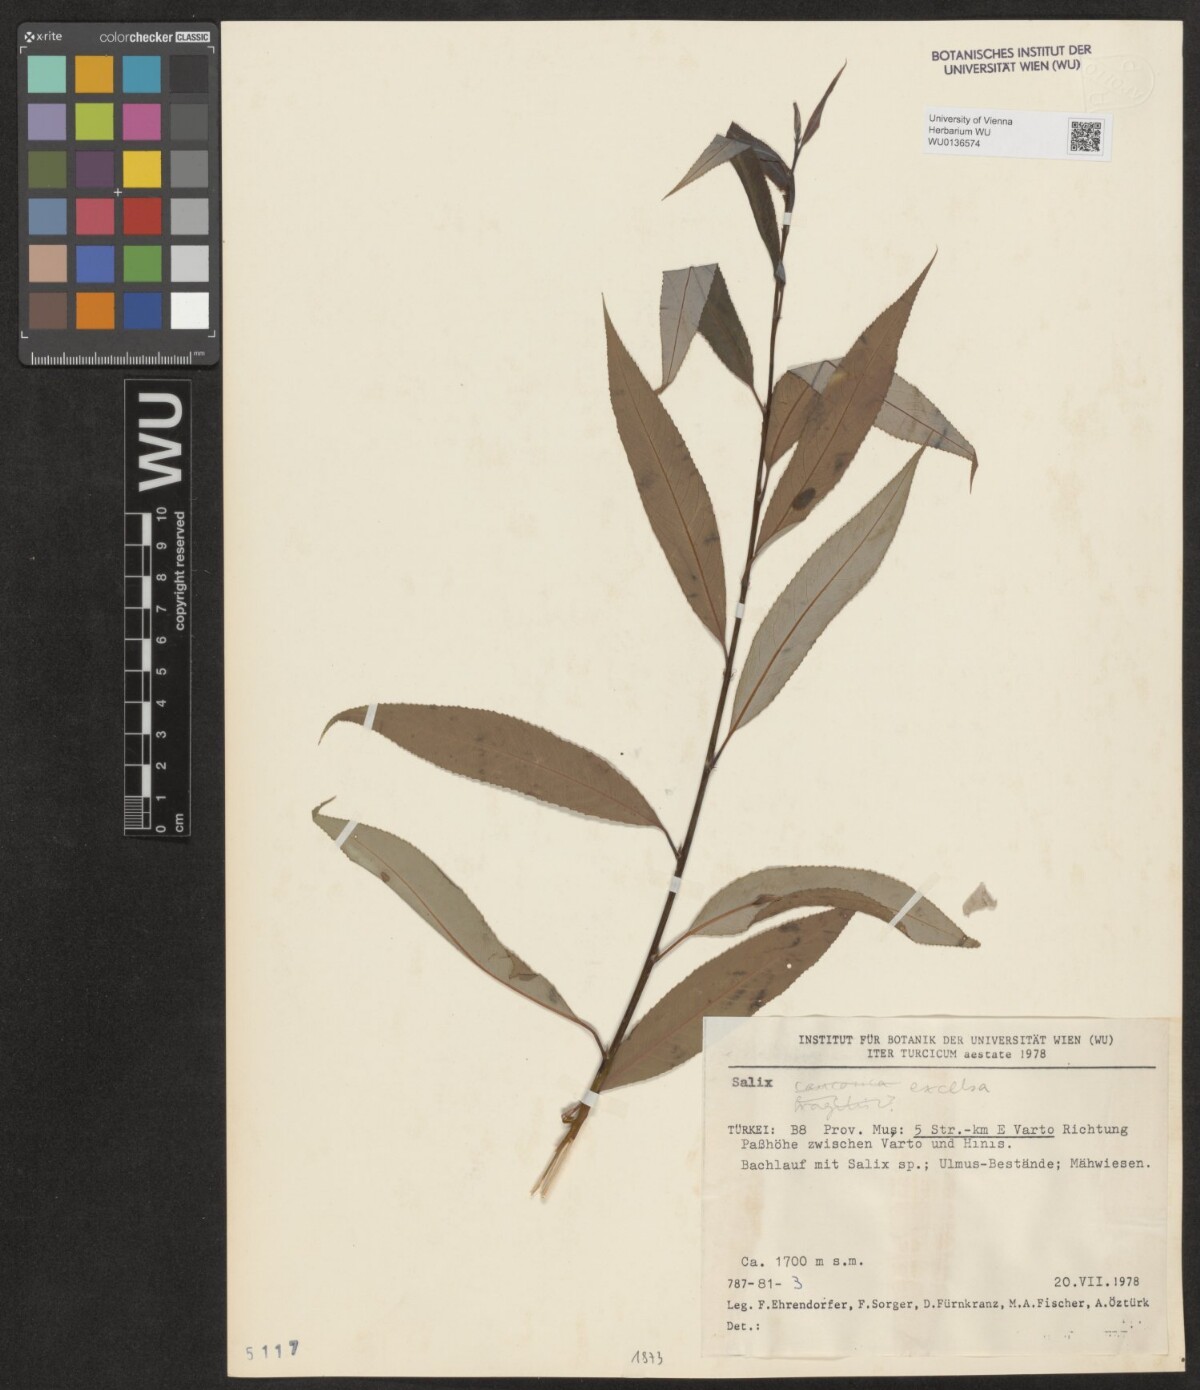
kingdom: Plantae
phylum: Tracheophyta
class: Magnoliopsida
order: Malpighiales
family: Salicaceae
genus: Salix
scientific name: Salix excelsa
